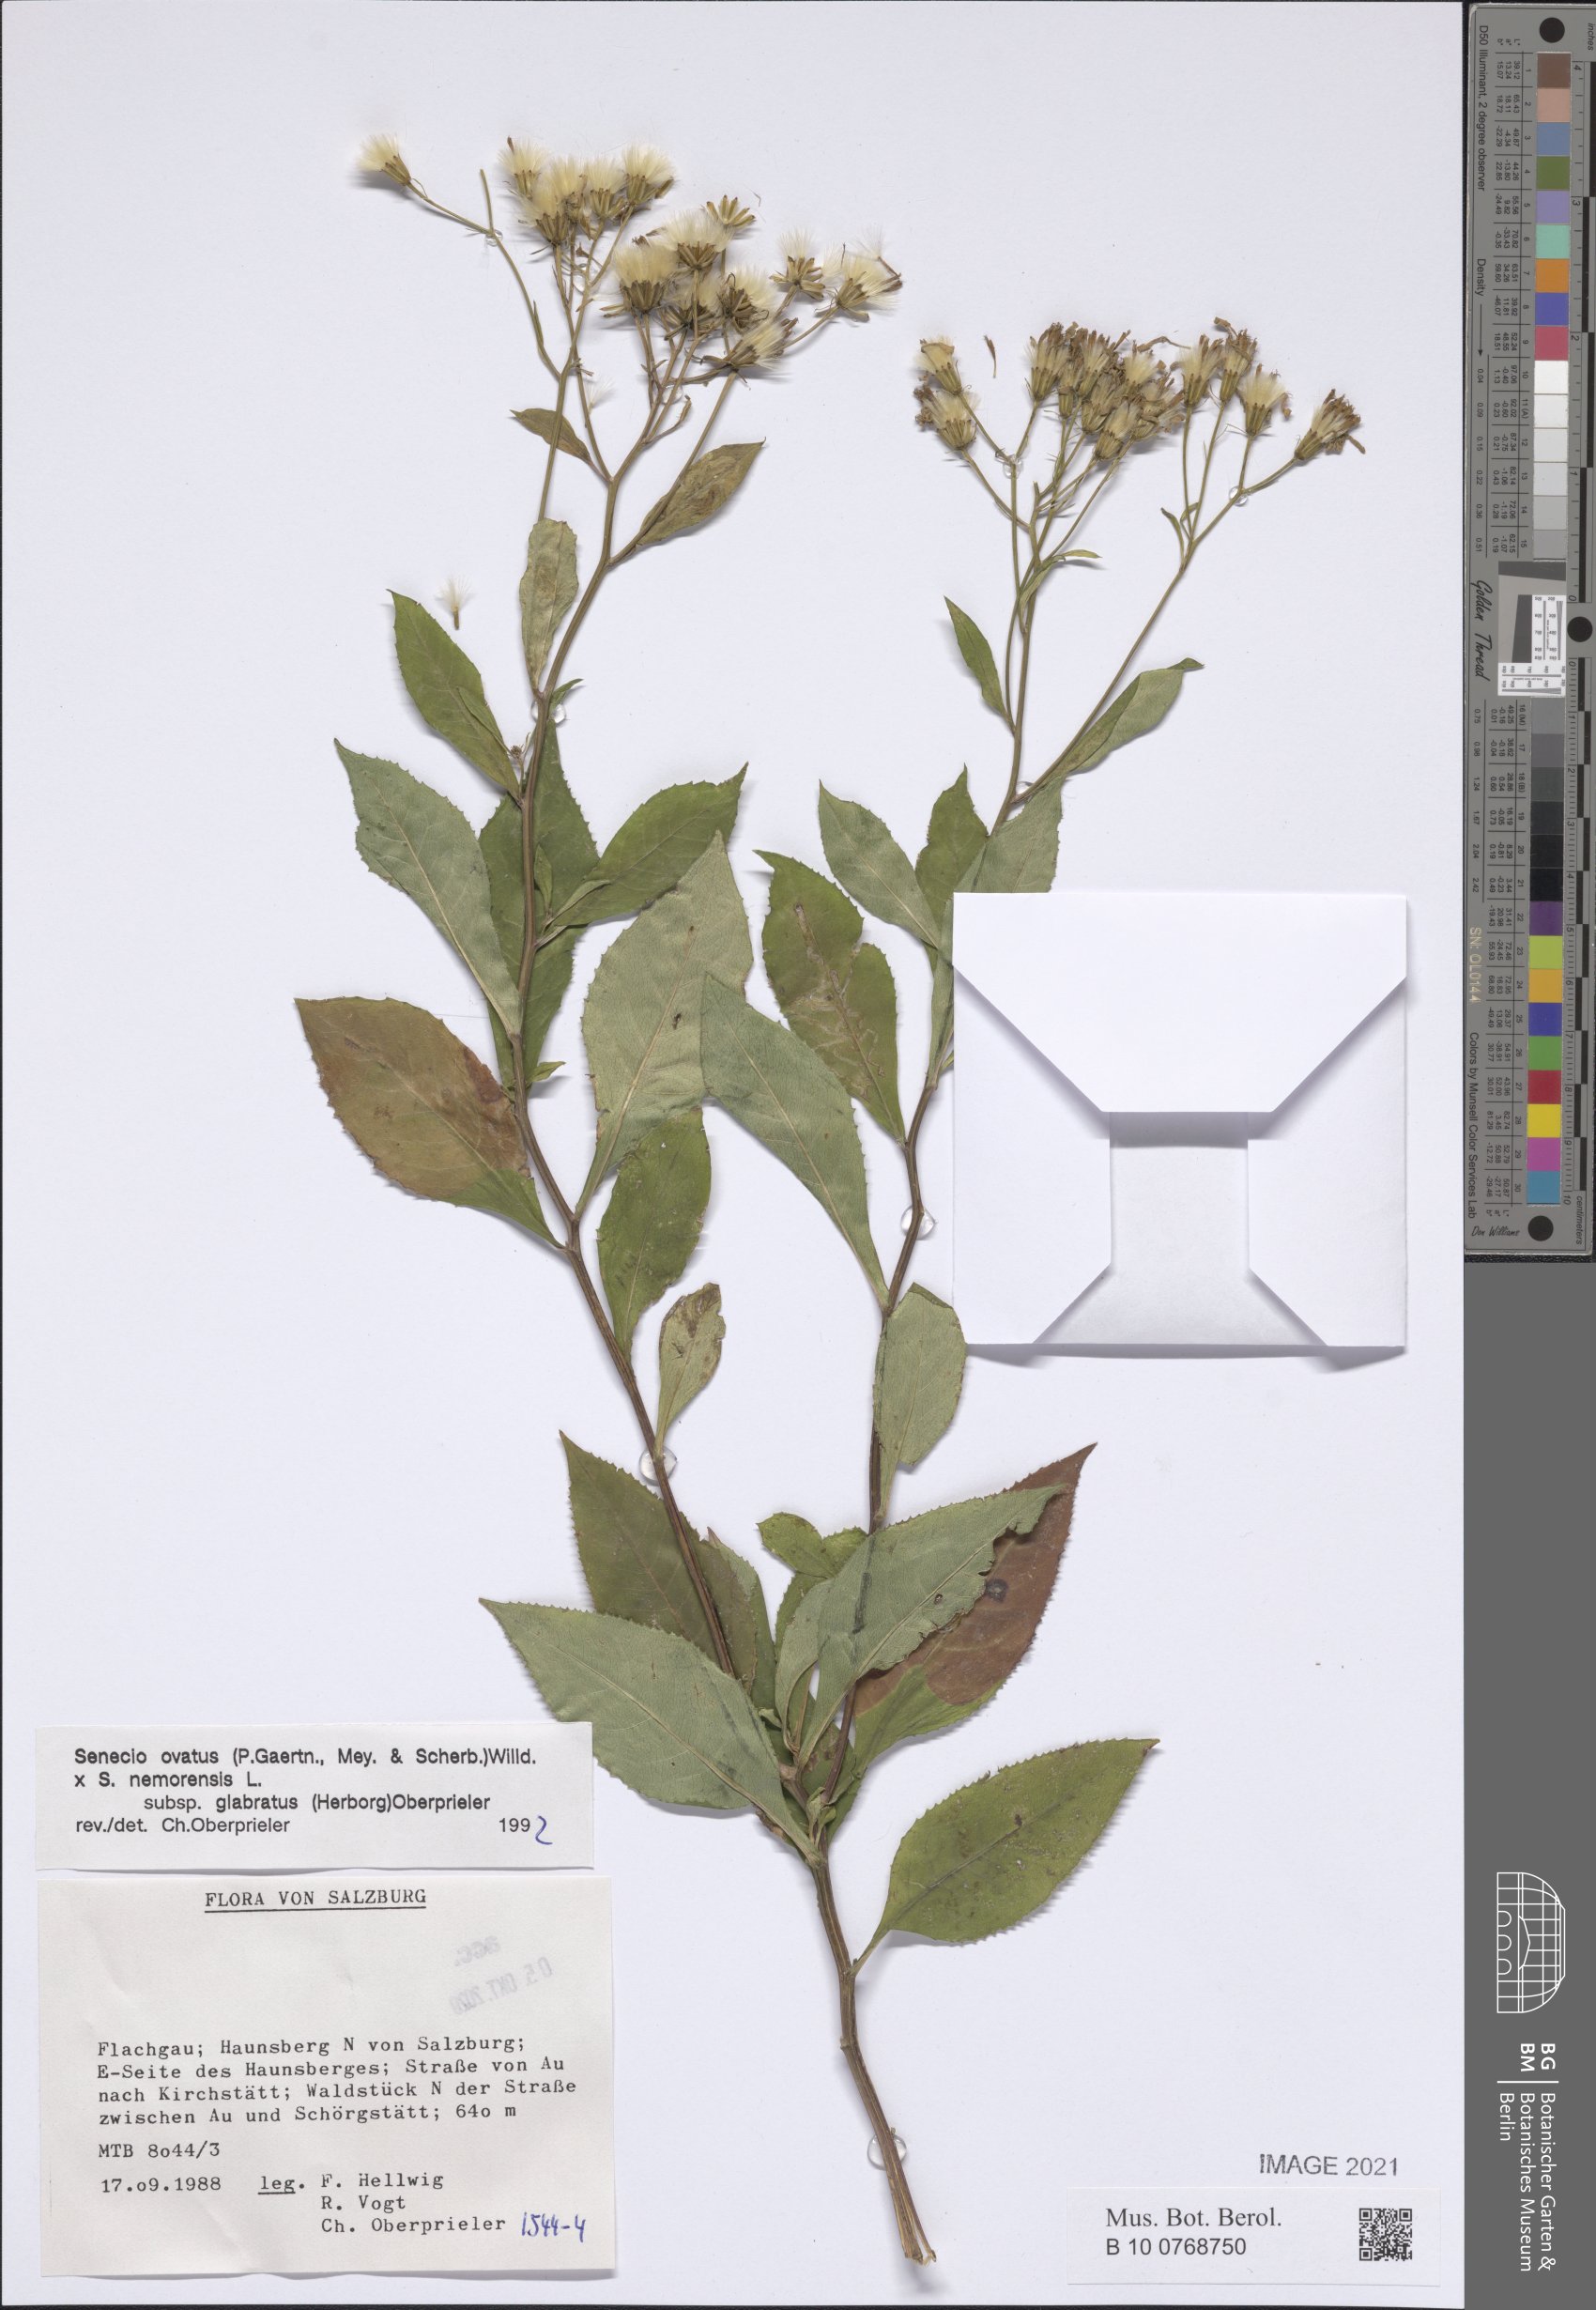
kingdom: Plantae
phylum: Tracheophyta
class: Magnoliopsida
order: Asterales
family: Asteraceae
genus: Senecio
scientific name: Senecio ovatus
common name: Wood ragwort
